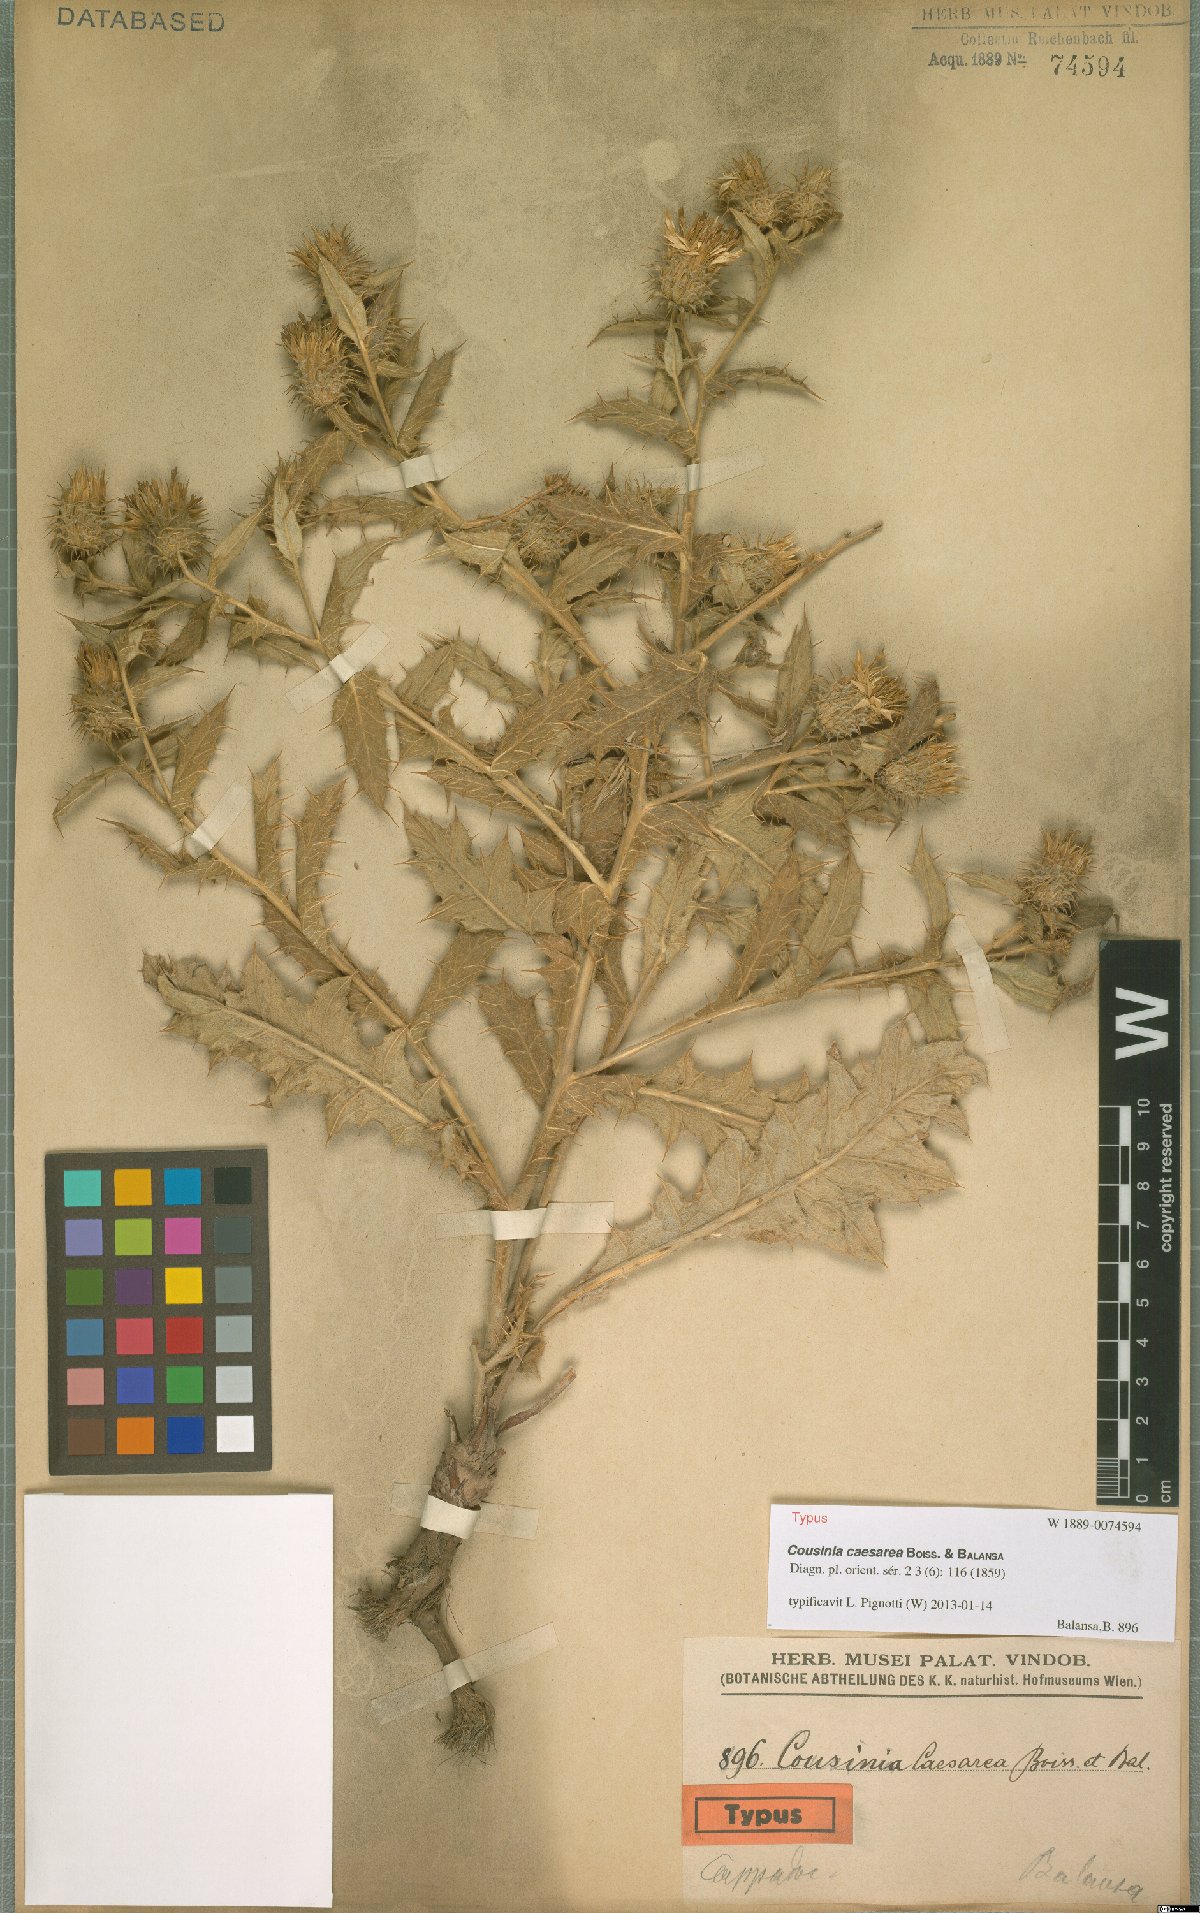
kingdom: Plantae
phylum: Tracheophyta
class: Magnoliopsida
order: Asterales
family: Asteraceae
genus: Cousinia
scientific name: Cousinia caesarea
